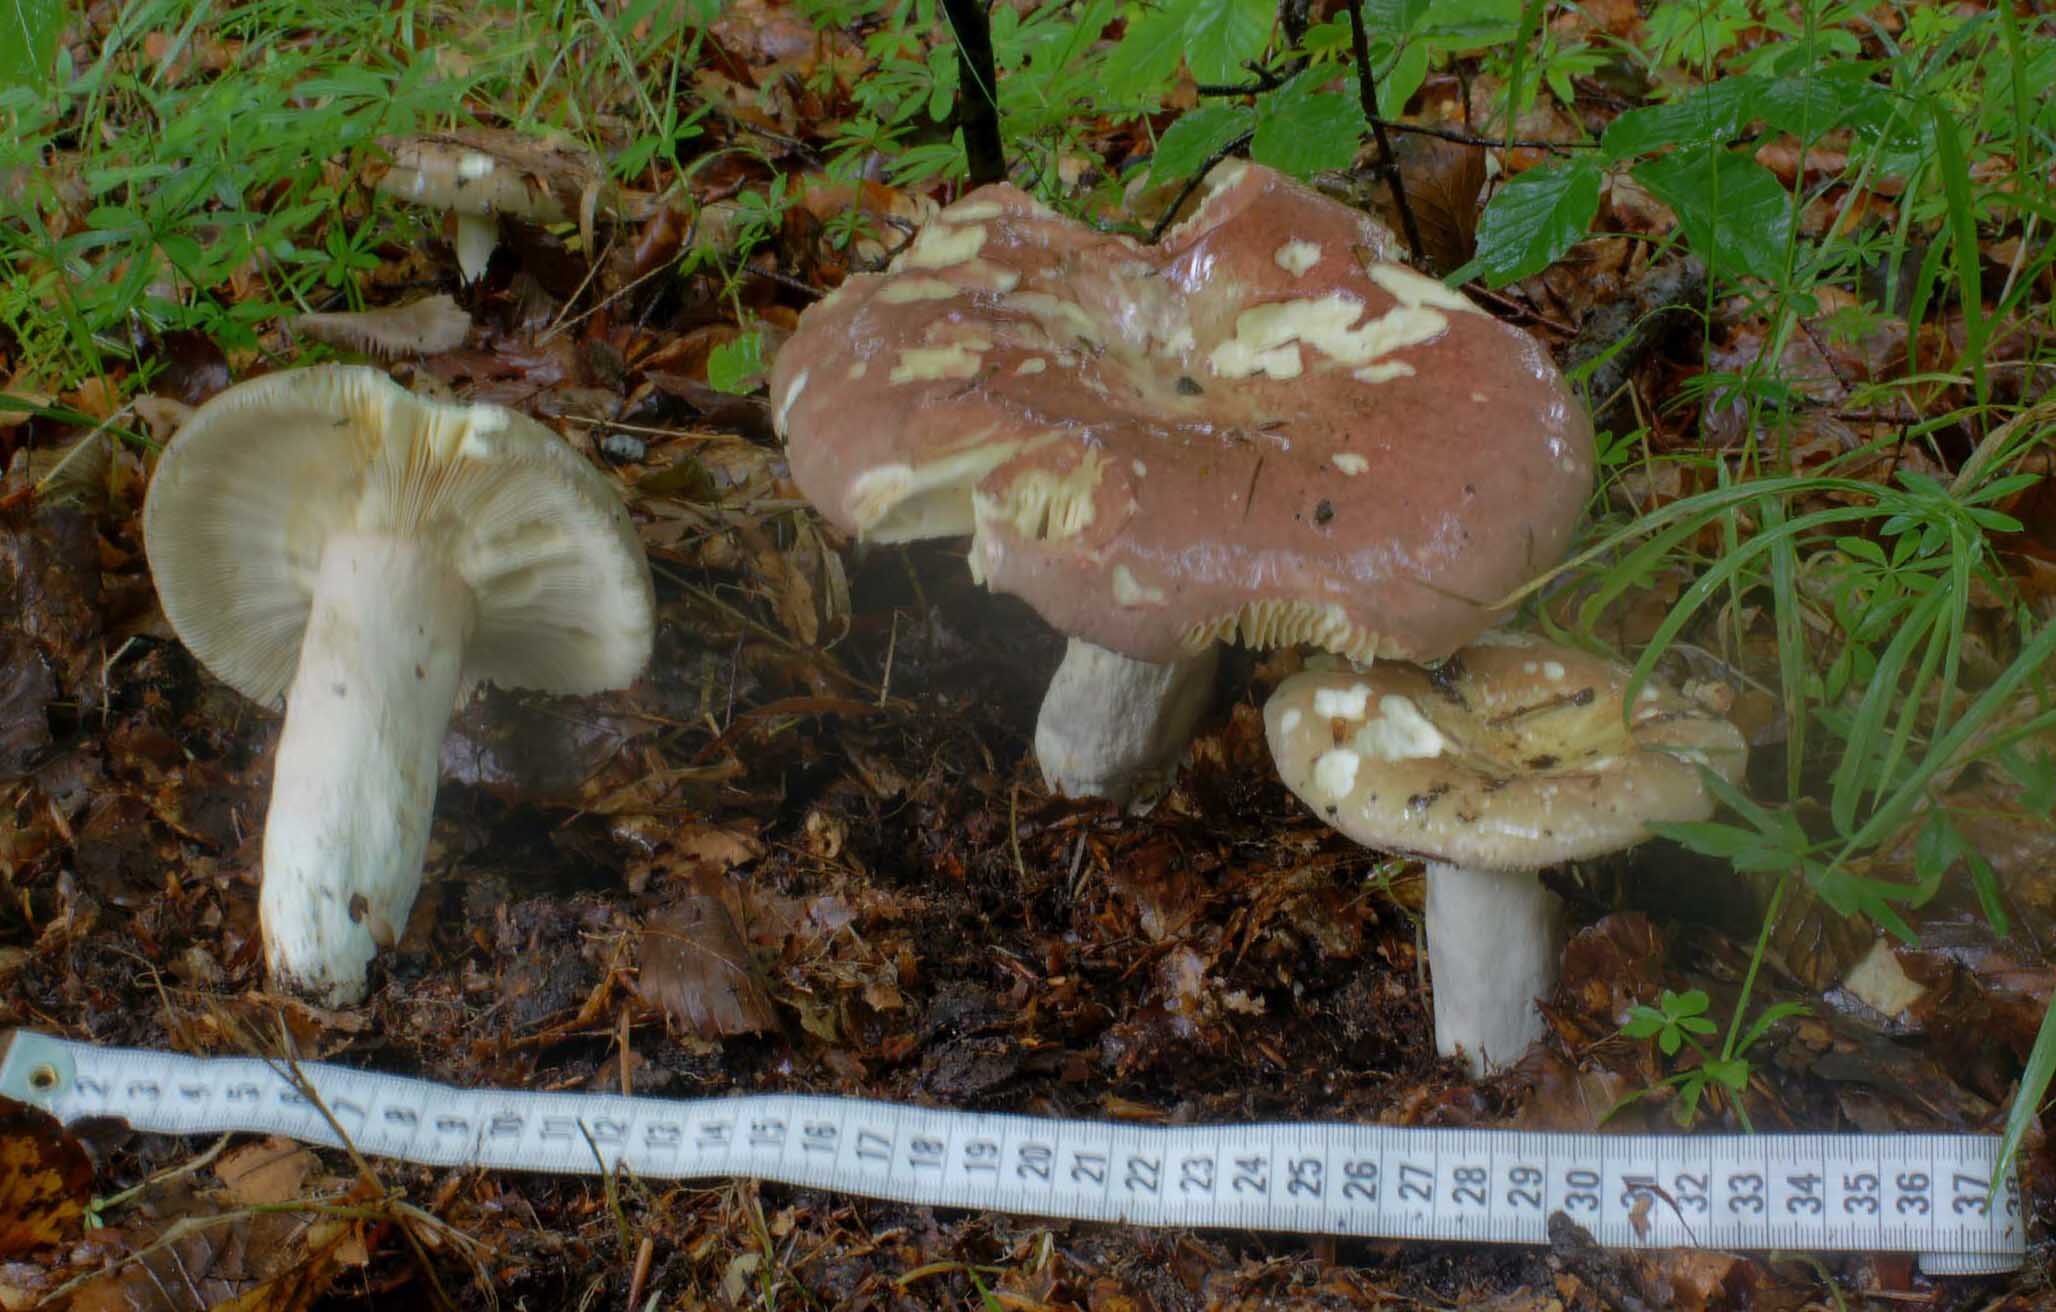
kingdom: Fungi
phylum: Basidiomycota
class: Agaricomycetes
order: Russulales
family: Russulaceae
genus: Russula
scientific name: Russula olivacea
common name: stor skørhat
